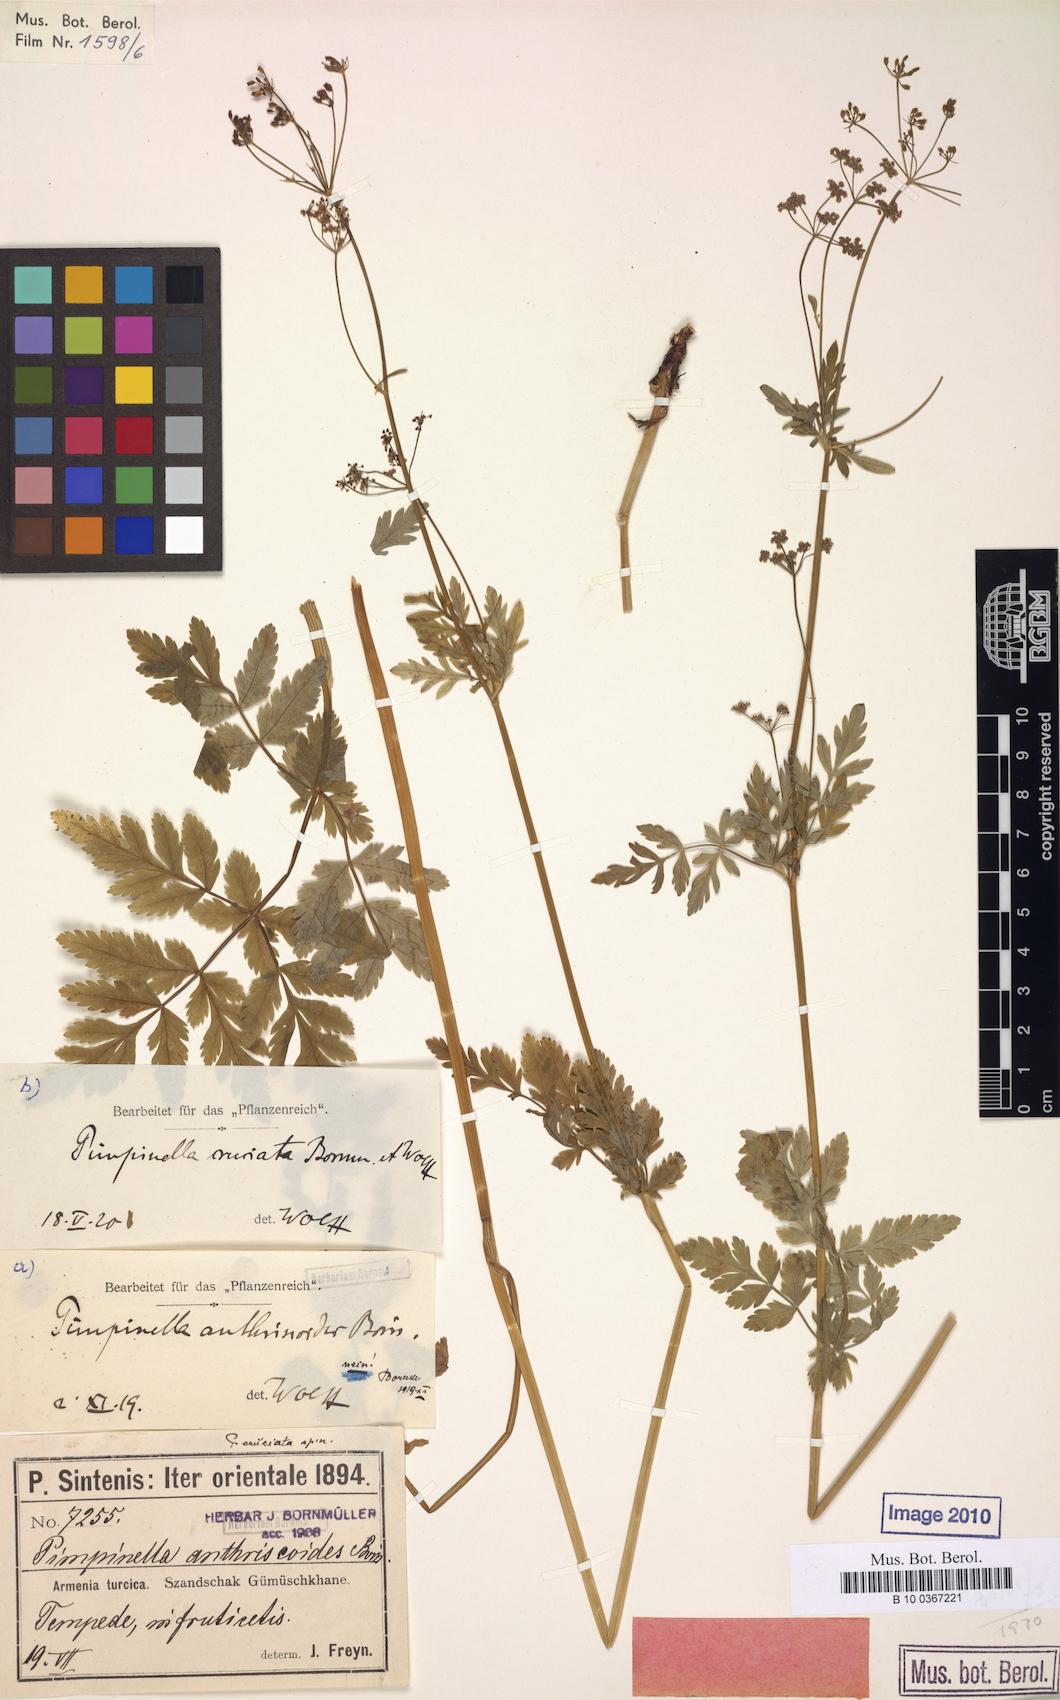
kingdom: Plantae
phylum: Tracheophyta
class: Magnoliopsida
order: Apiales
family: Apiaceae
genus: Tamamschjanella
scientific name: Tamamschjanella cruciata
